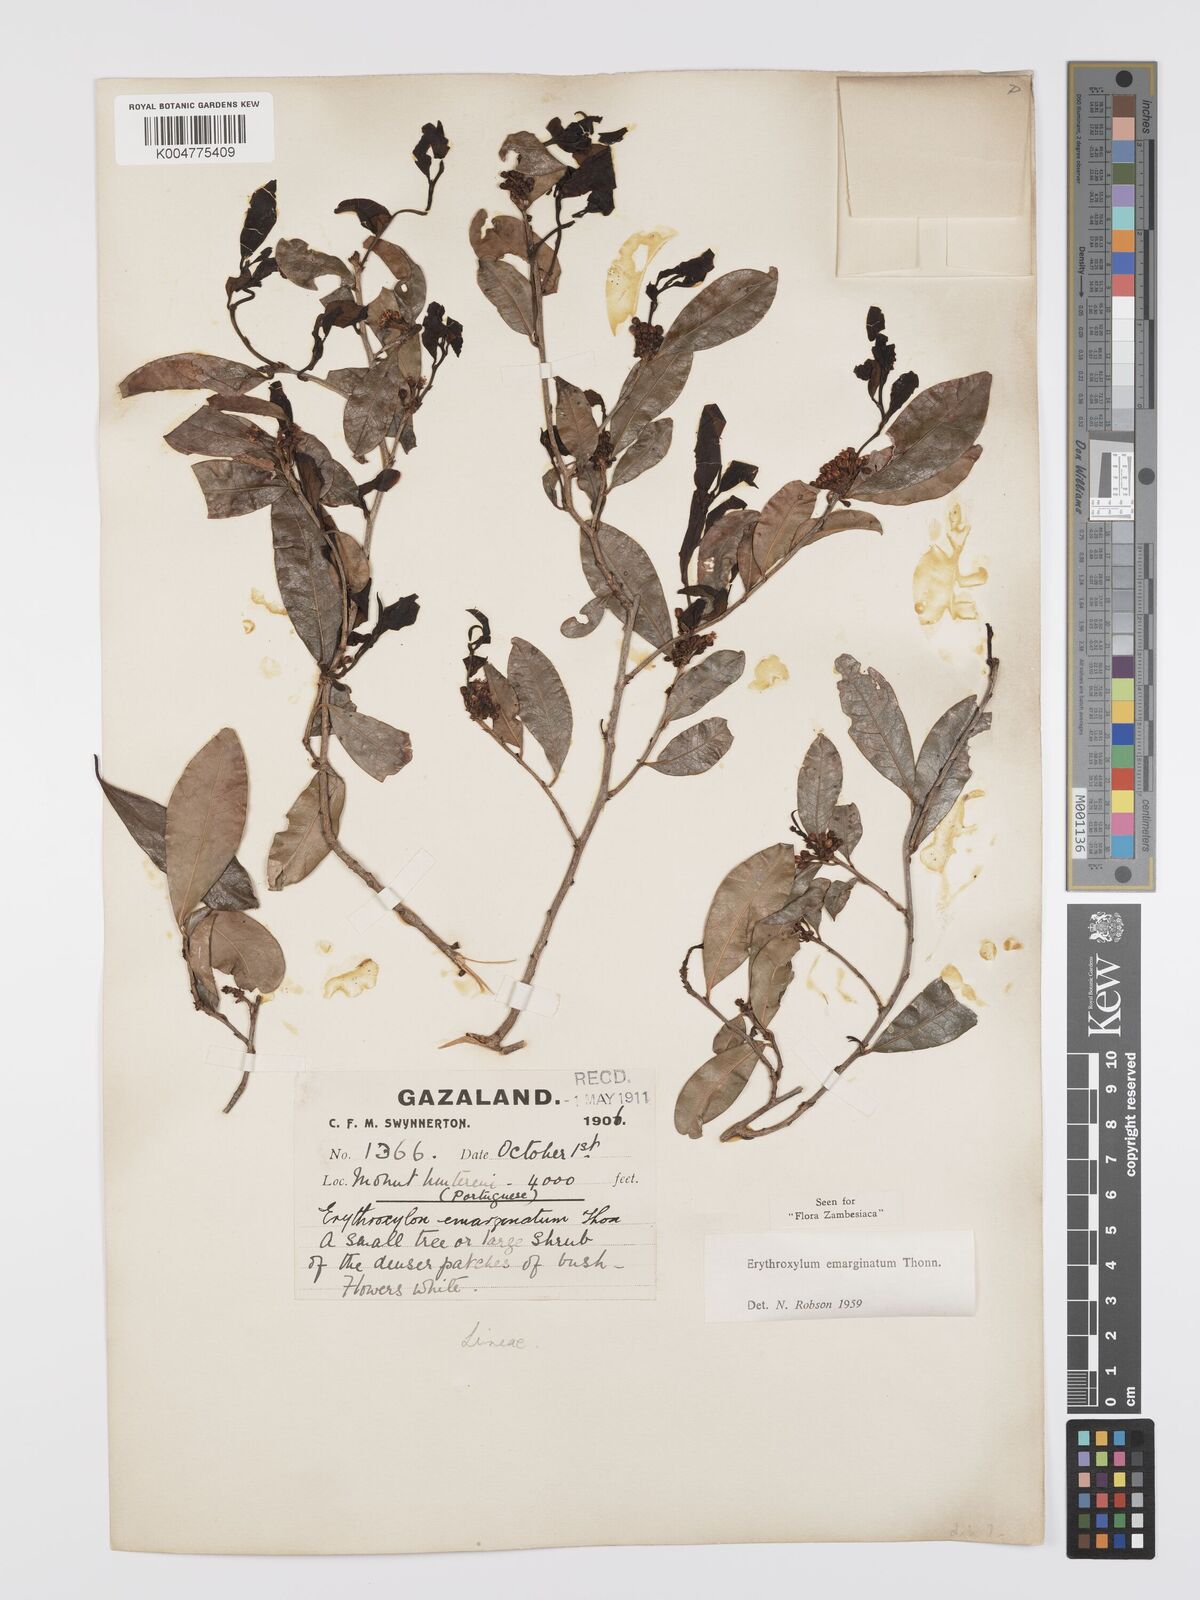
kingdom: Plantae
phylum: Tracheophyta
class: Magnoliopsida
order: Malpighiales
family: Erythroxylaceae
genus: Erythroxylum
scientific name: Erythroxylum emarginatum
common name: African coca-tree
